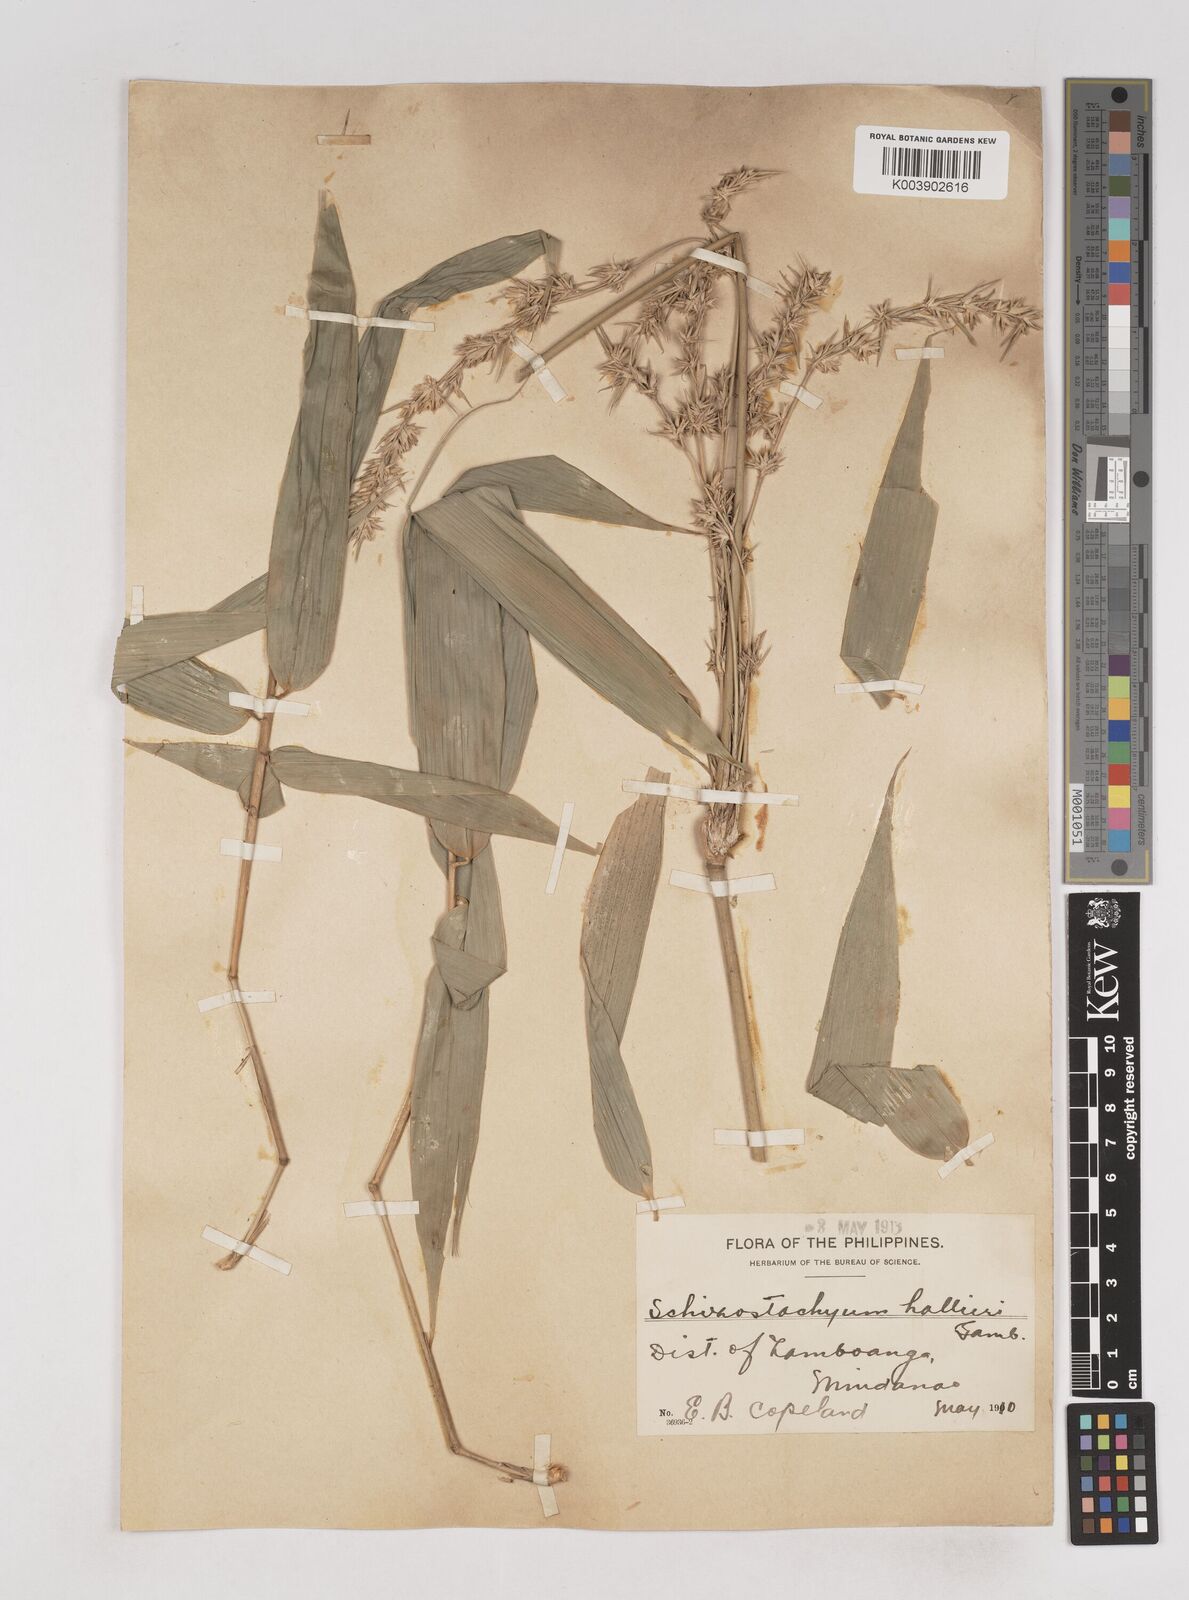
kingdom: Plantae
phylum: Tracheophyta
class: Liliopsida
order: Poales
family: Poaceae
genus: Schizostachyum
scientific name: Schizostachyum lima
